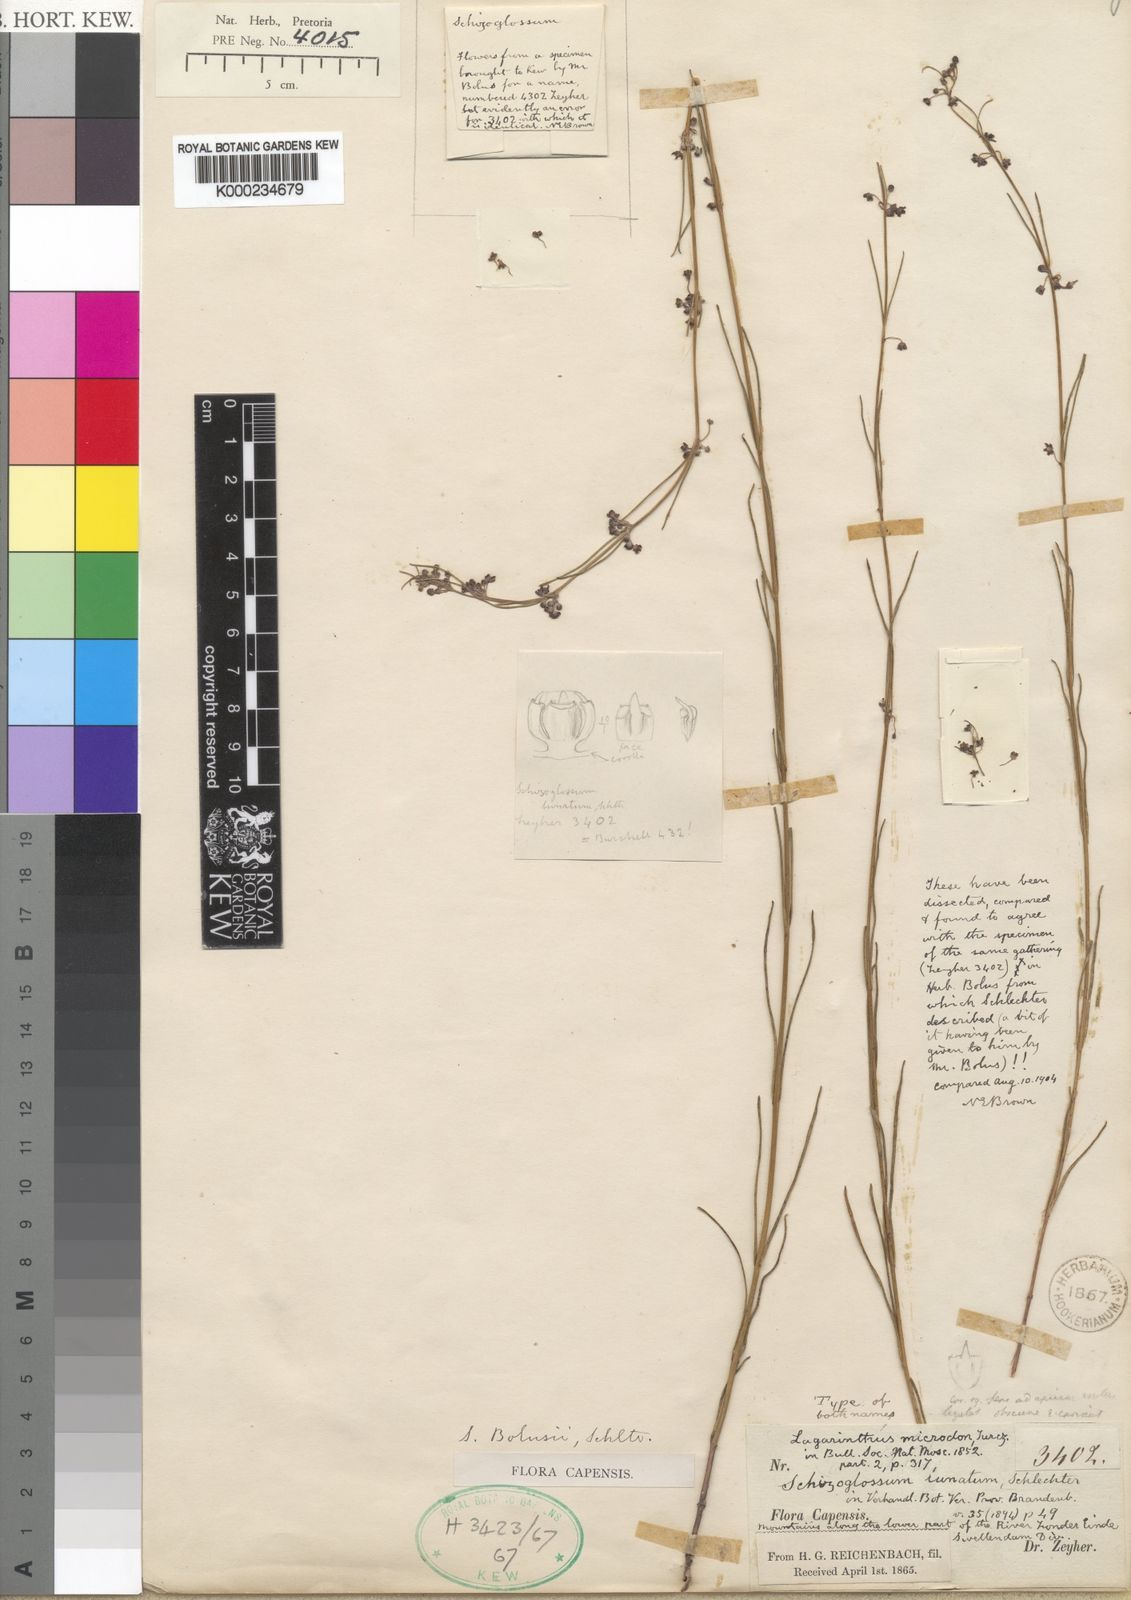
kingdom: Plantae
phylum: Tracheophyta
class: Magnoliopsida
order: Gentianales
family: Apocynaceae
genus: Aspidoglossum
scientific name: Aspidoglossum gracile
